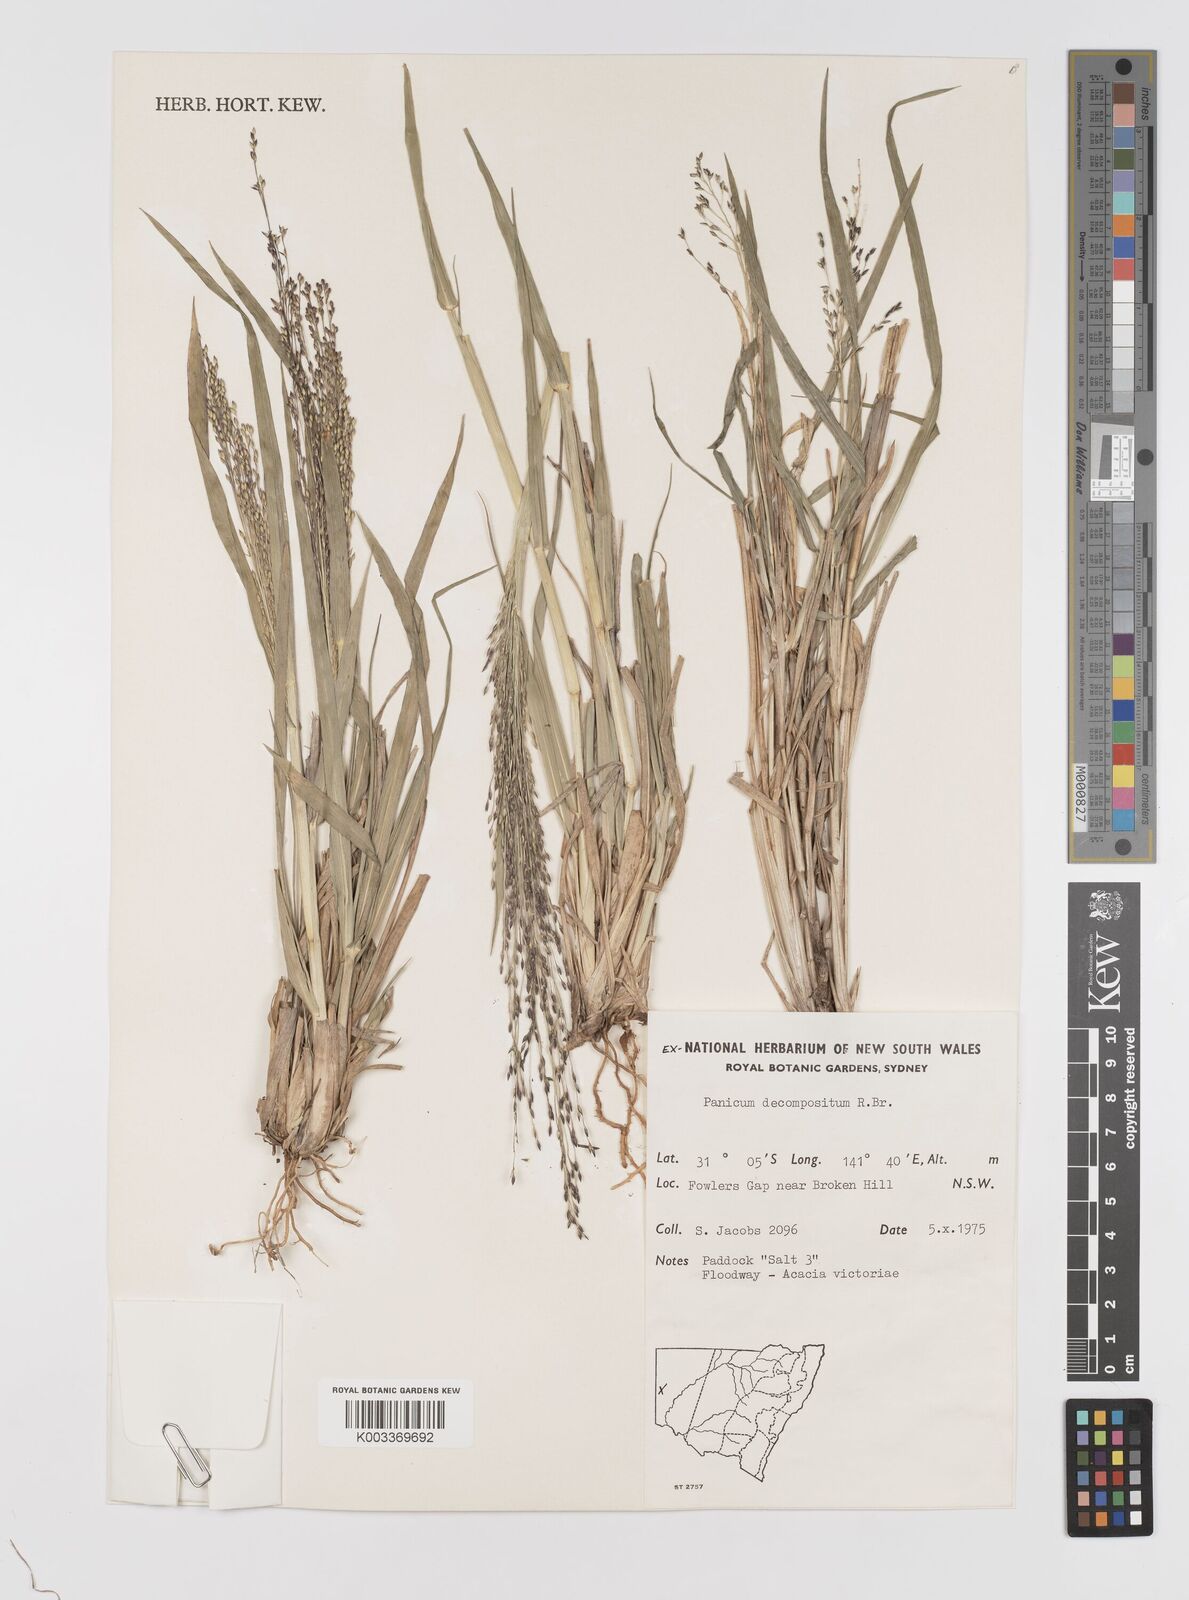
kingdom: Plantae
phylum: Tracheophyta
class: Liliopsida
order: Poales
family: Poaceae
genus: Panicum
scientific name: Panicum decompositum
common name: Australian millet
